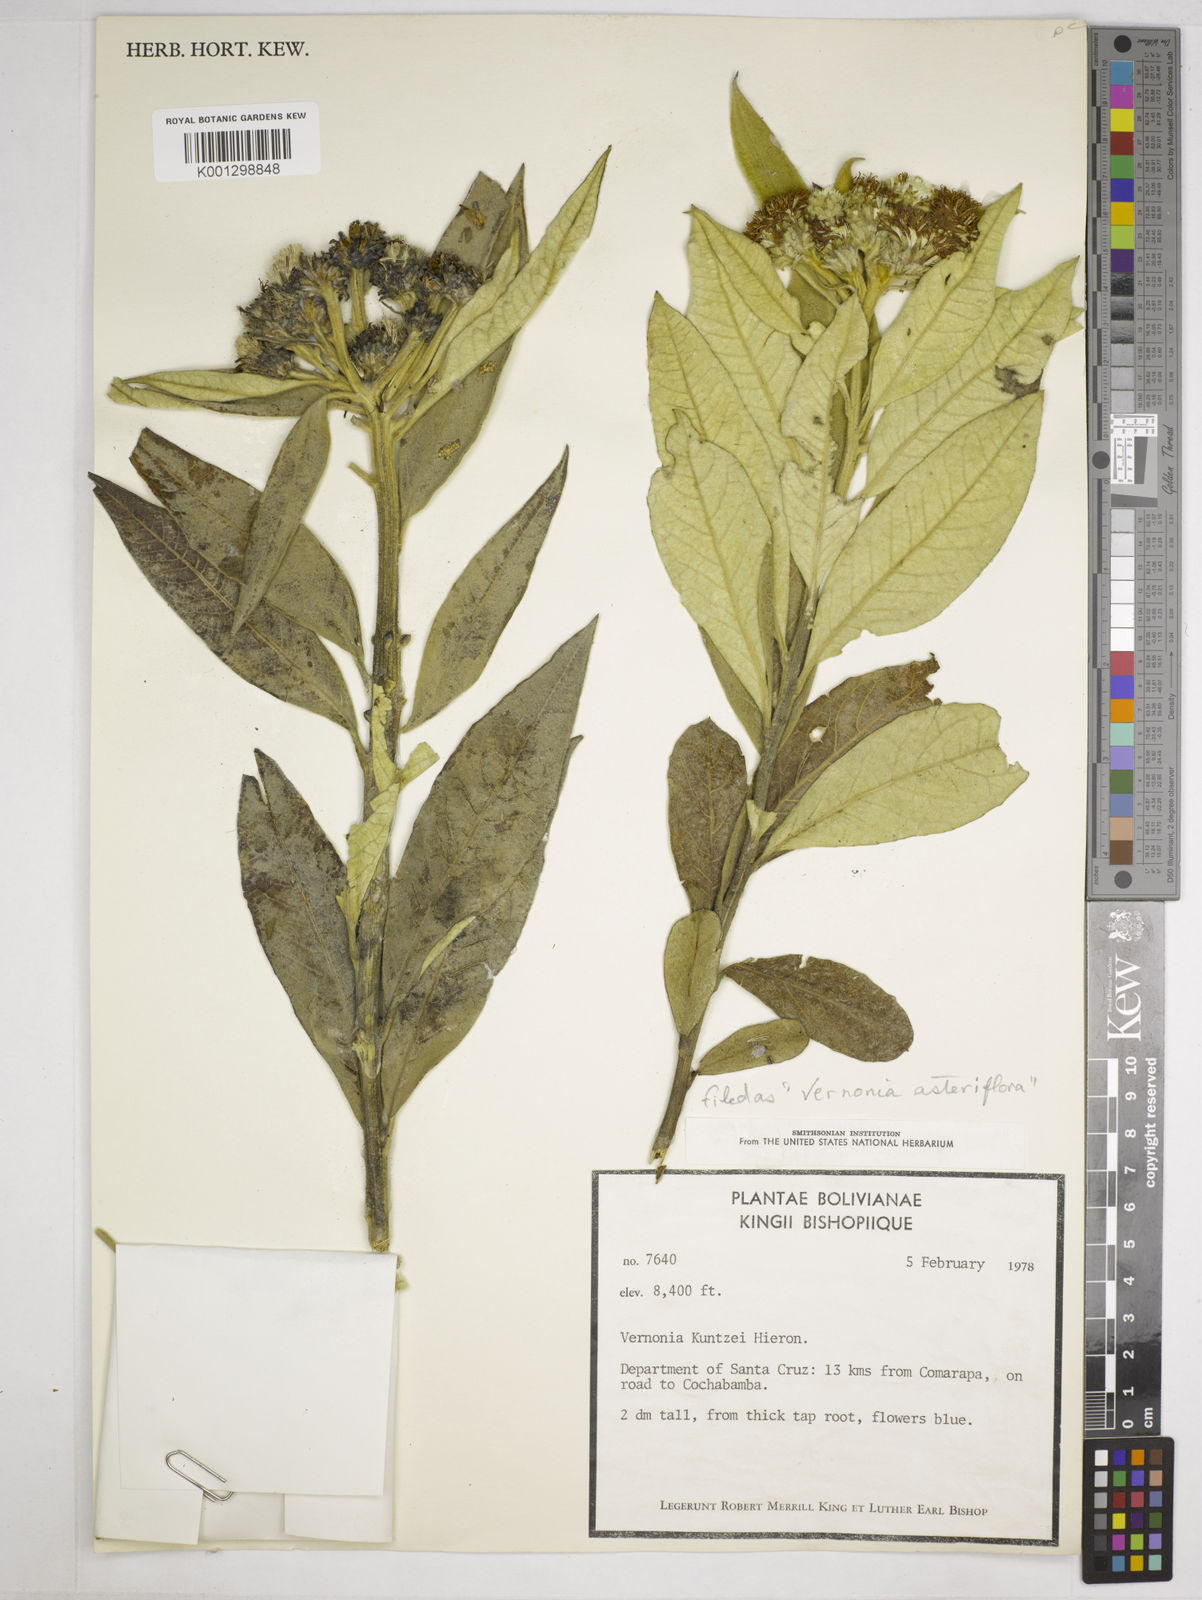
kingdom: Plantae
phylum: Tracheophyta
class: Magnoliopsida
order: Asterales
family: Asteraceae
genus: Lessingianthus
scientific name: Lessingianthus asteriflorus
